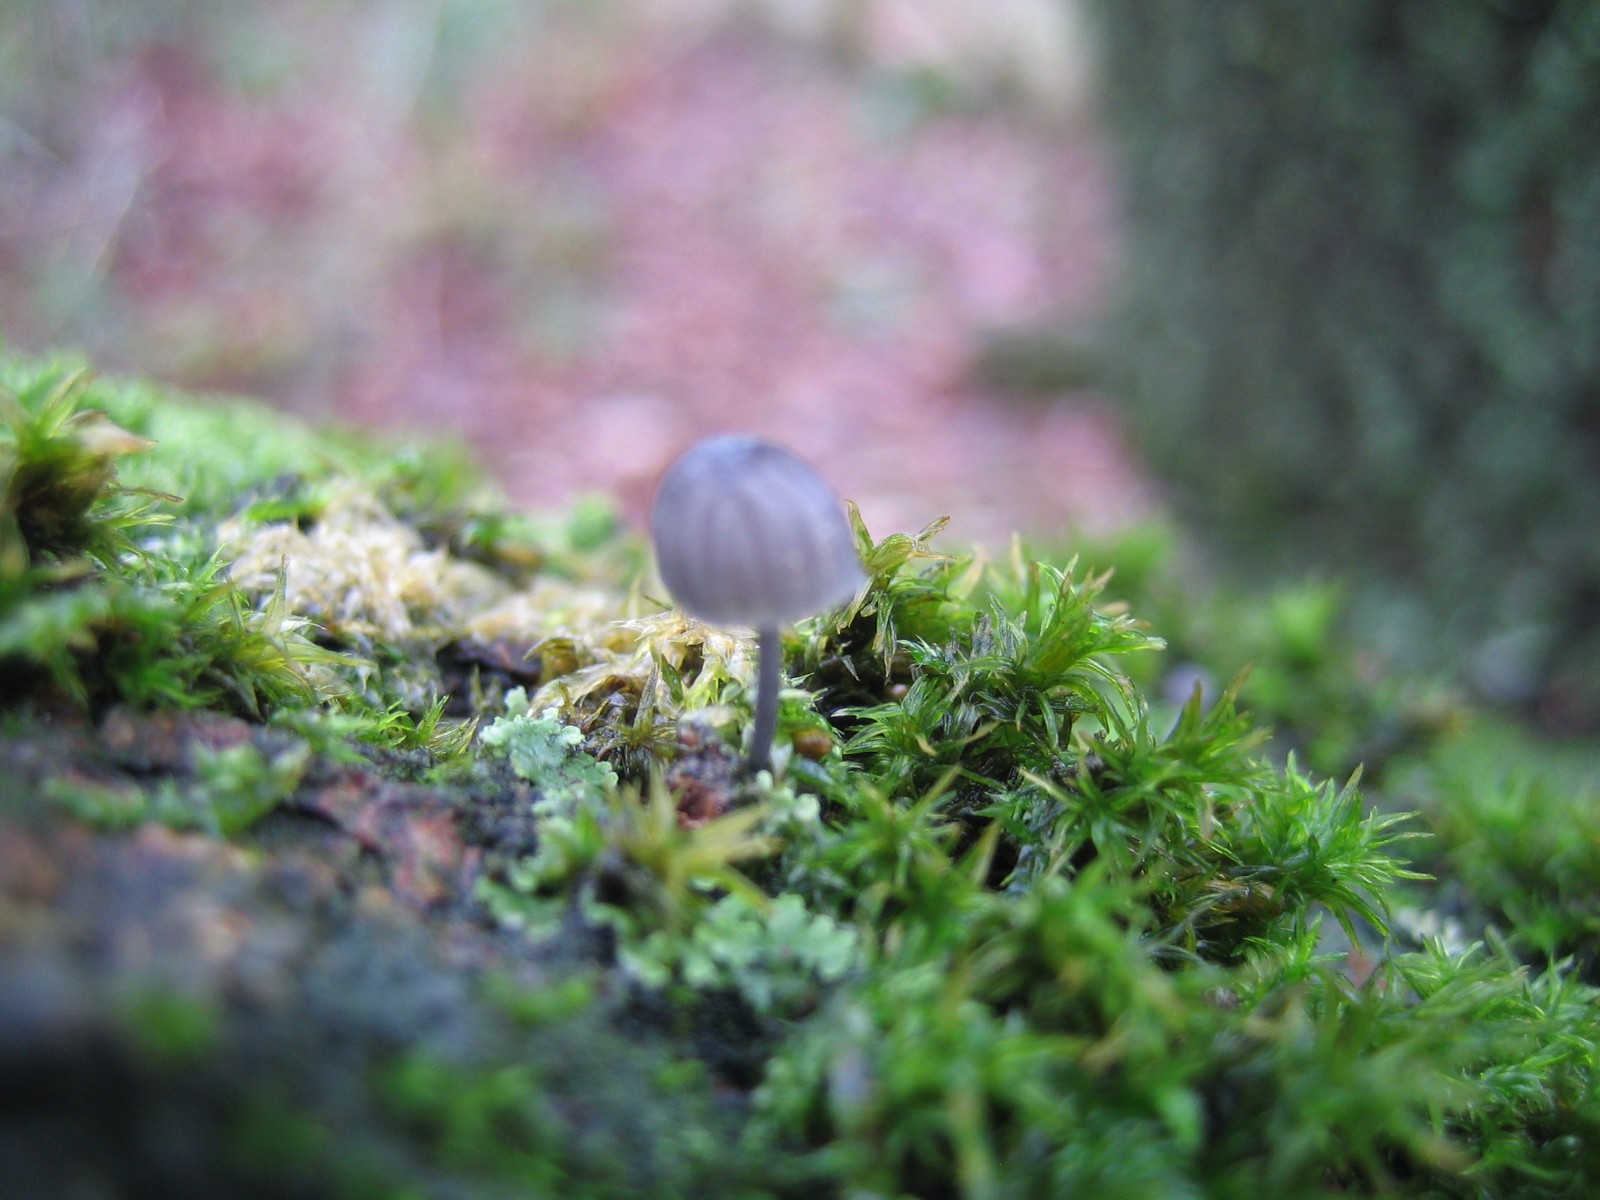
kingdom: Fungi
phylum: Basidiomycota
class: Agaricomycetes
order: Agaricales
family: Mycenaceae
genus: Mycena
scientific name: Mycena pseudocorticola
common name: gråblå bark-huesvamp
